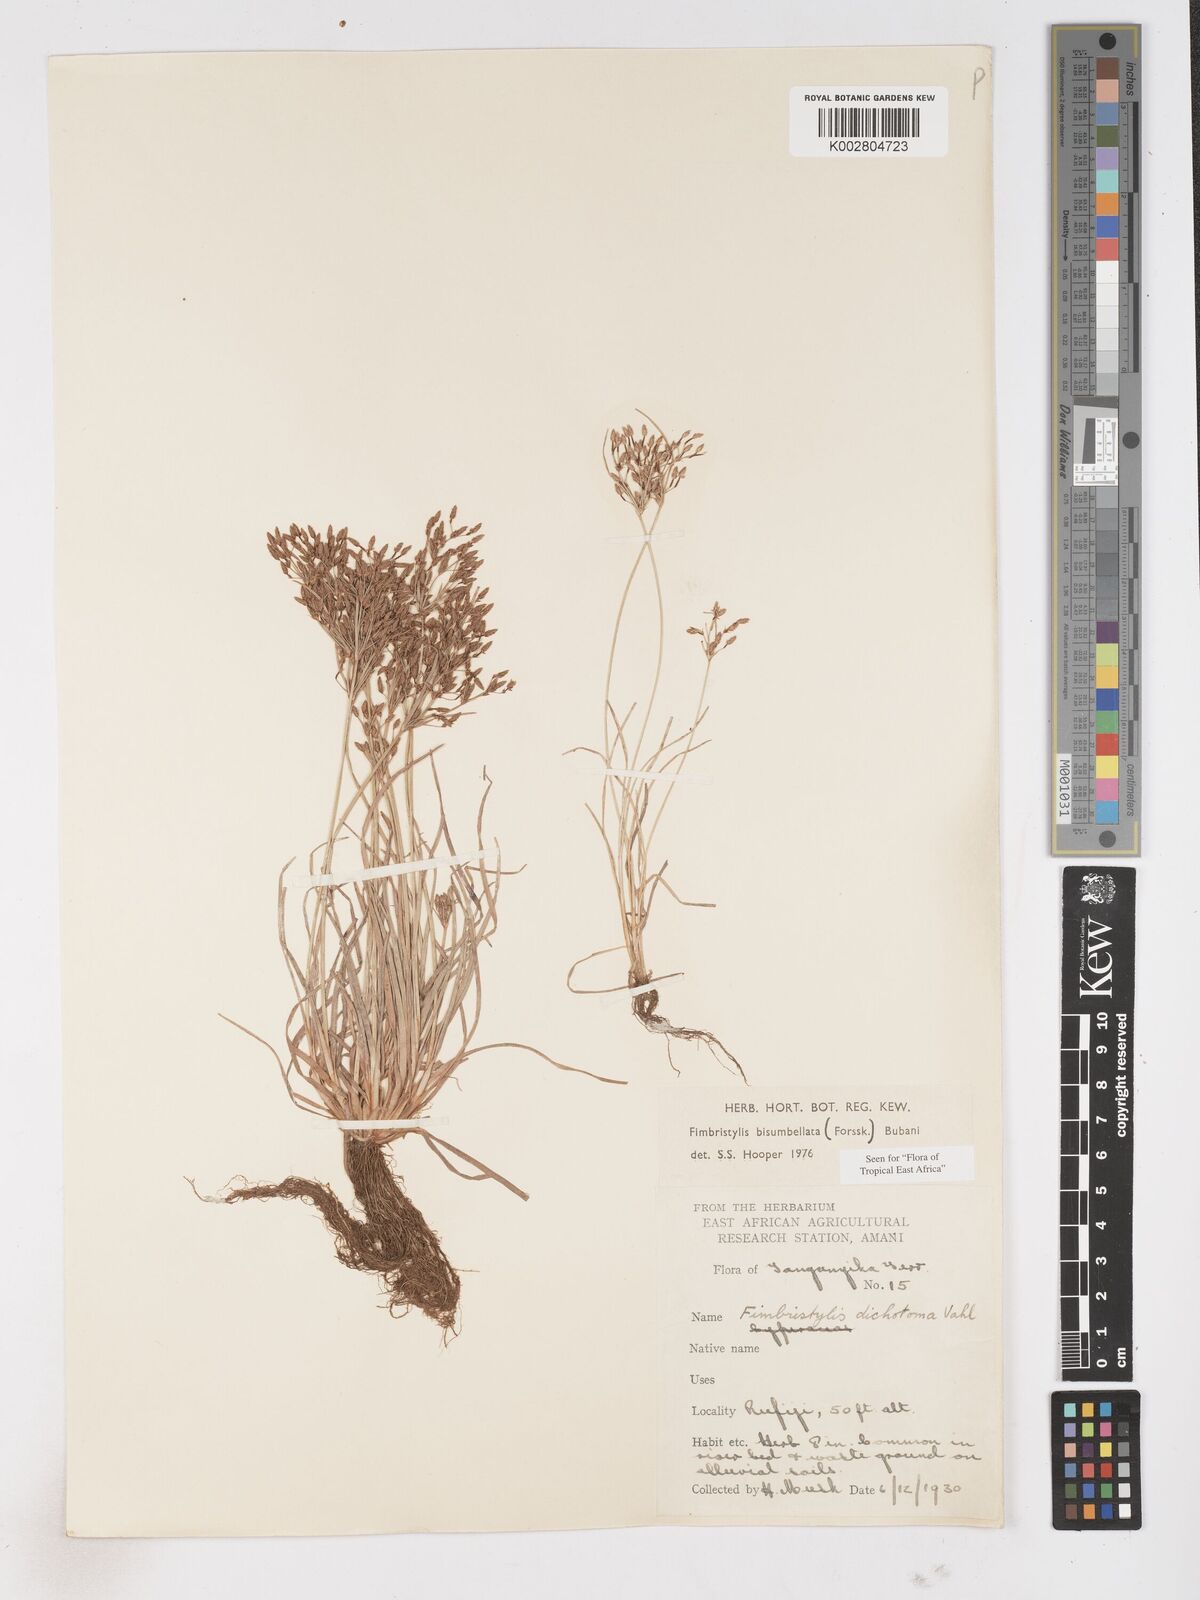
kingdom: Plantae
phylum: Tracheophyta
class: Liliopsida
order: Poales
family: Cyperaceae
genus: Fimbristylis
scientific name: Fimbristylis bisumbellata
